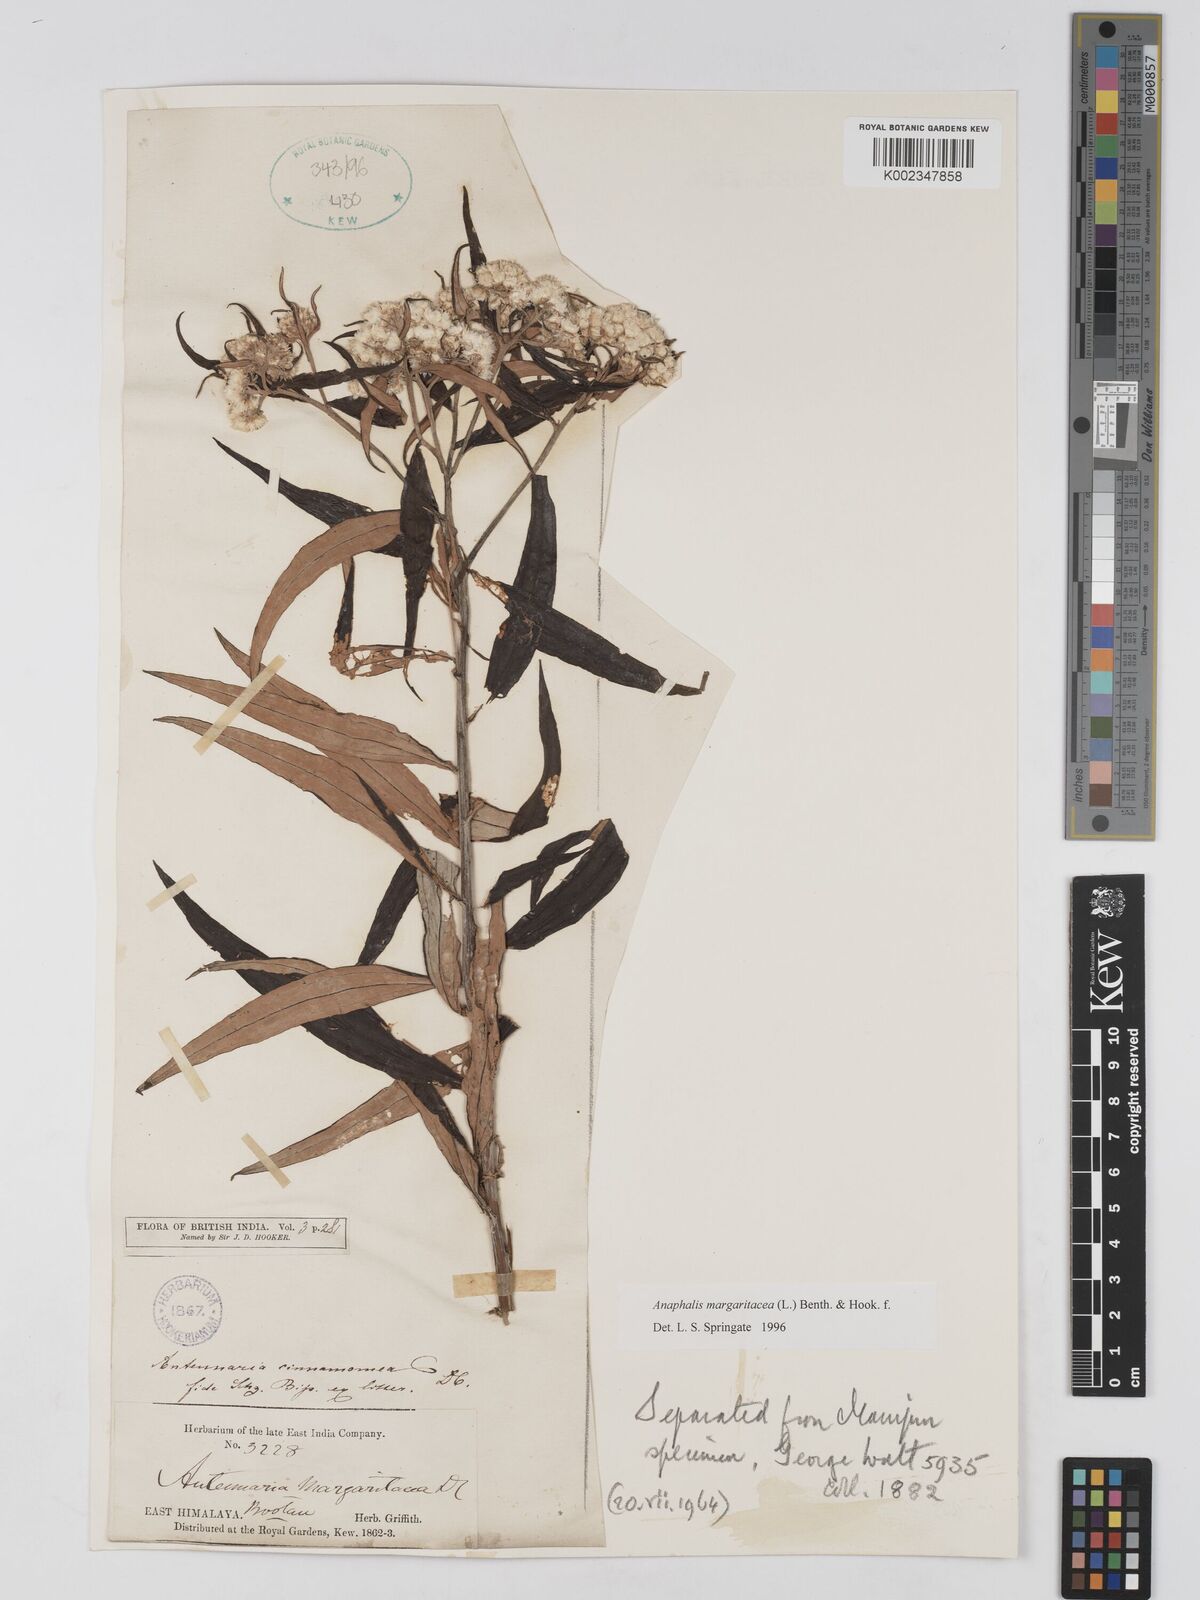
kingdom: Plantae
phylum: Tracheophyta
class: Magnoliopsida
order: Asterales
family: Asteraceae
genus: Anaphalis
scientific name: Anaphalis margaritacea
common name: Pearly everlasting
